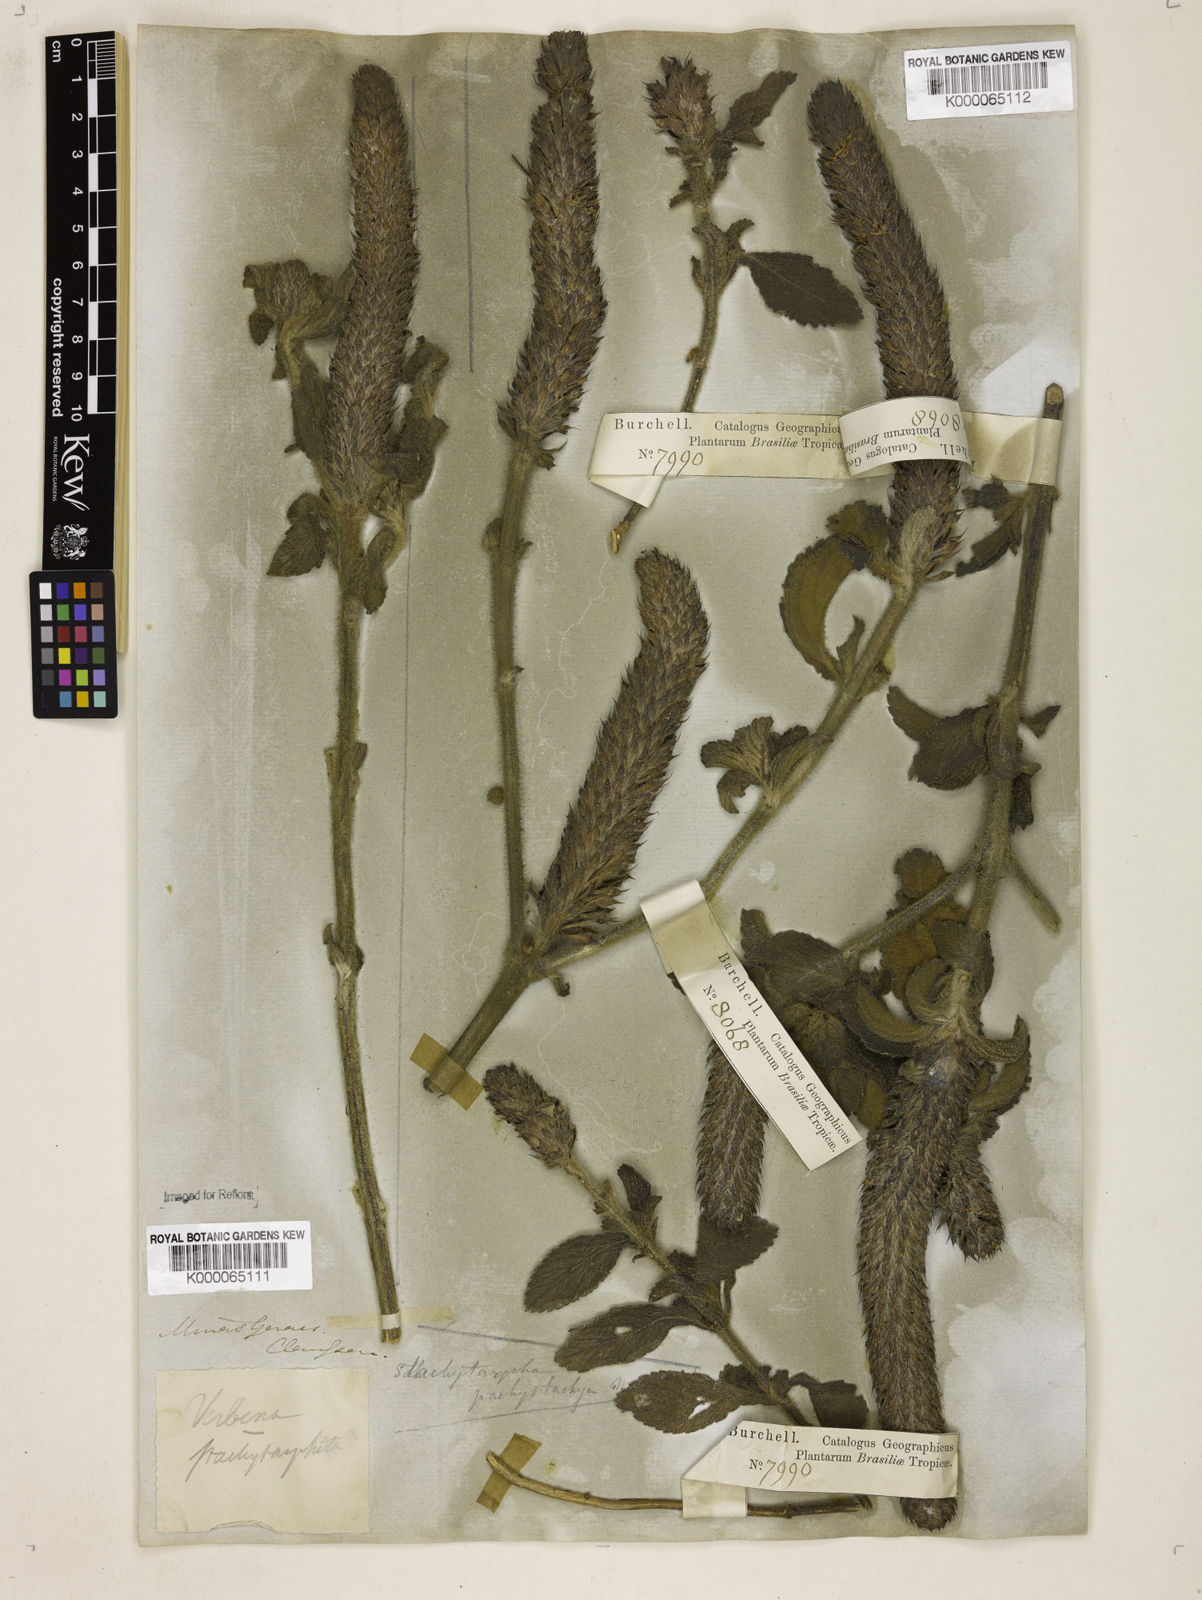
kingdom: Plantae
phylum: Tracheophyta
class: Magnoliopsida
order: Lamiales
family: Verbenaceae
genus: Stachytarpheta
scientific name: Stachytarpheta
